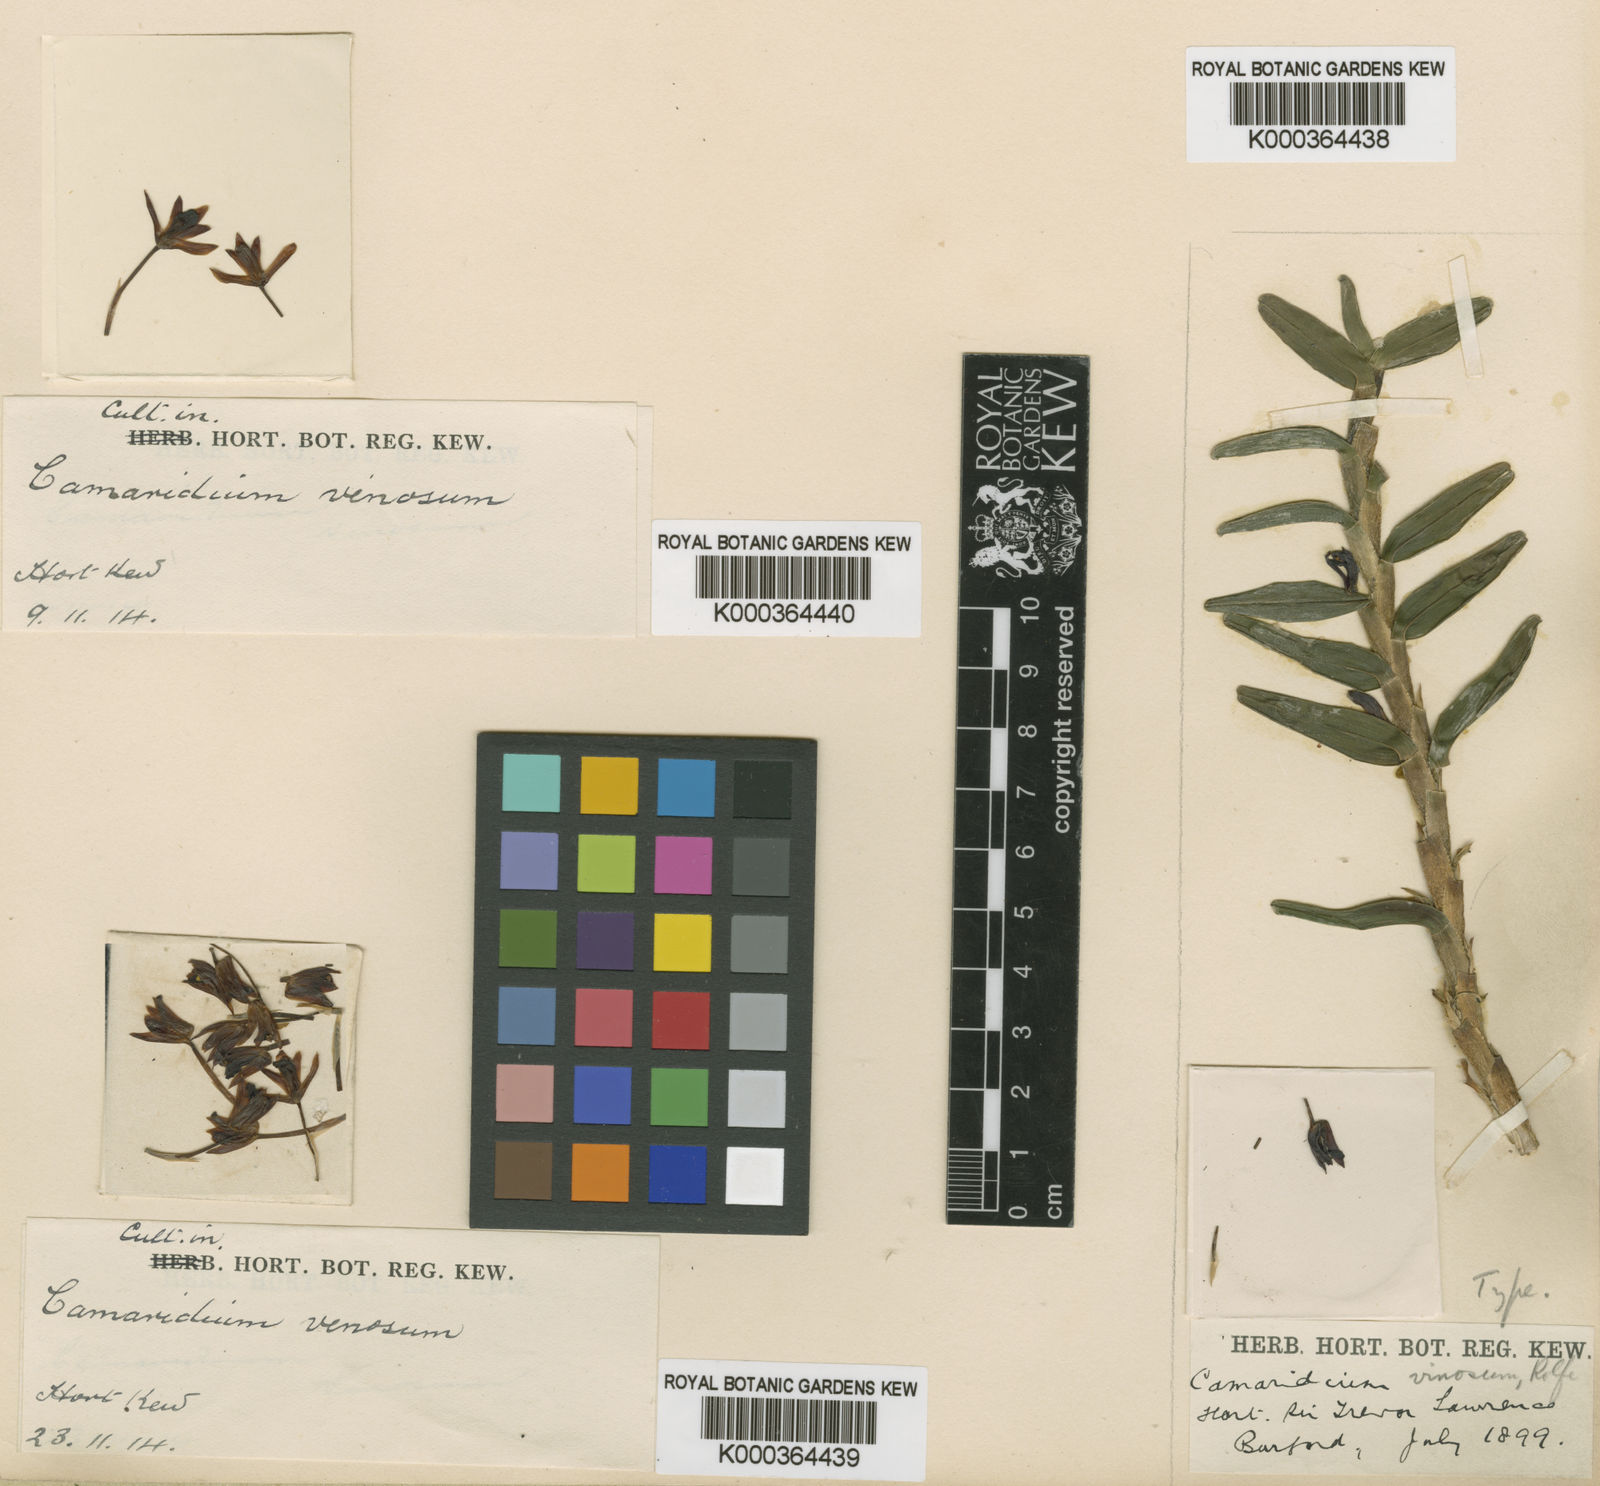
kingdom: Plantae
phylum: Tracheophyta
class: Liliopsida
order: Asparagales
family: Orchidaceae
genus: Maxillaria
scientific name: Maxillaria umbratilis
